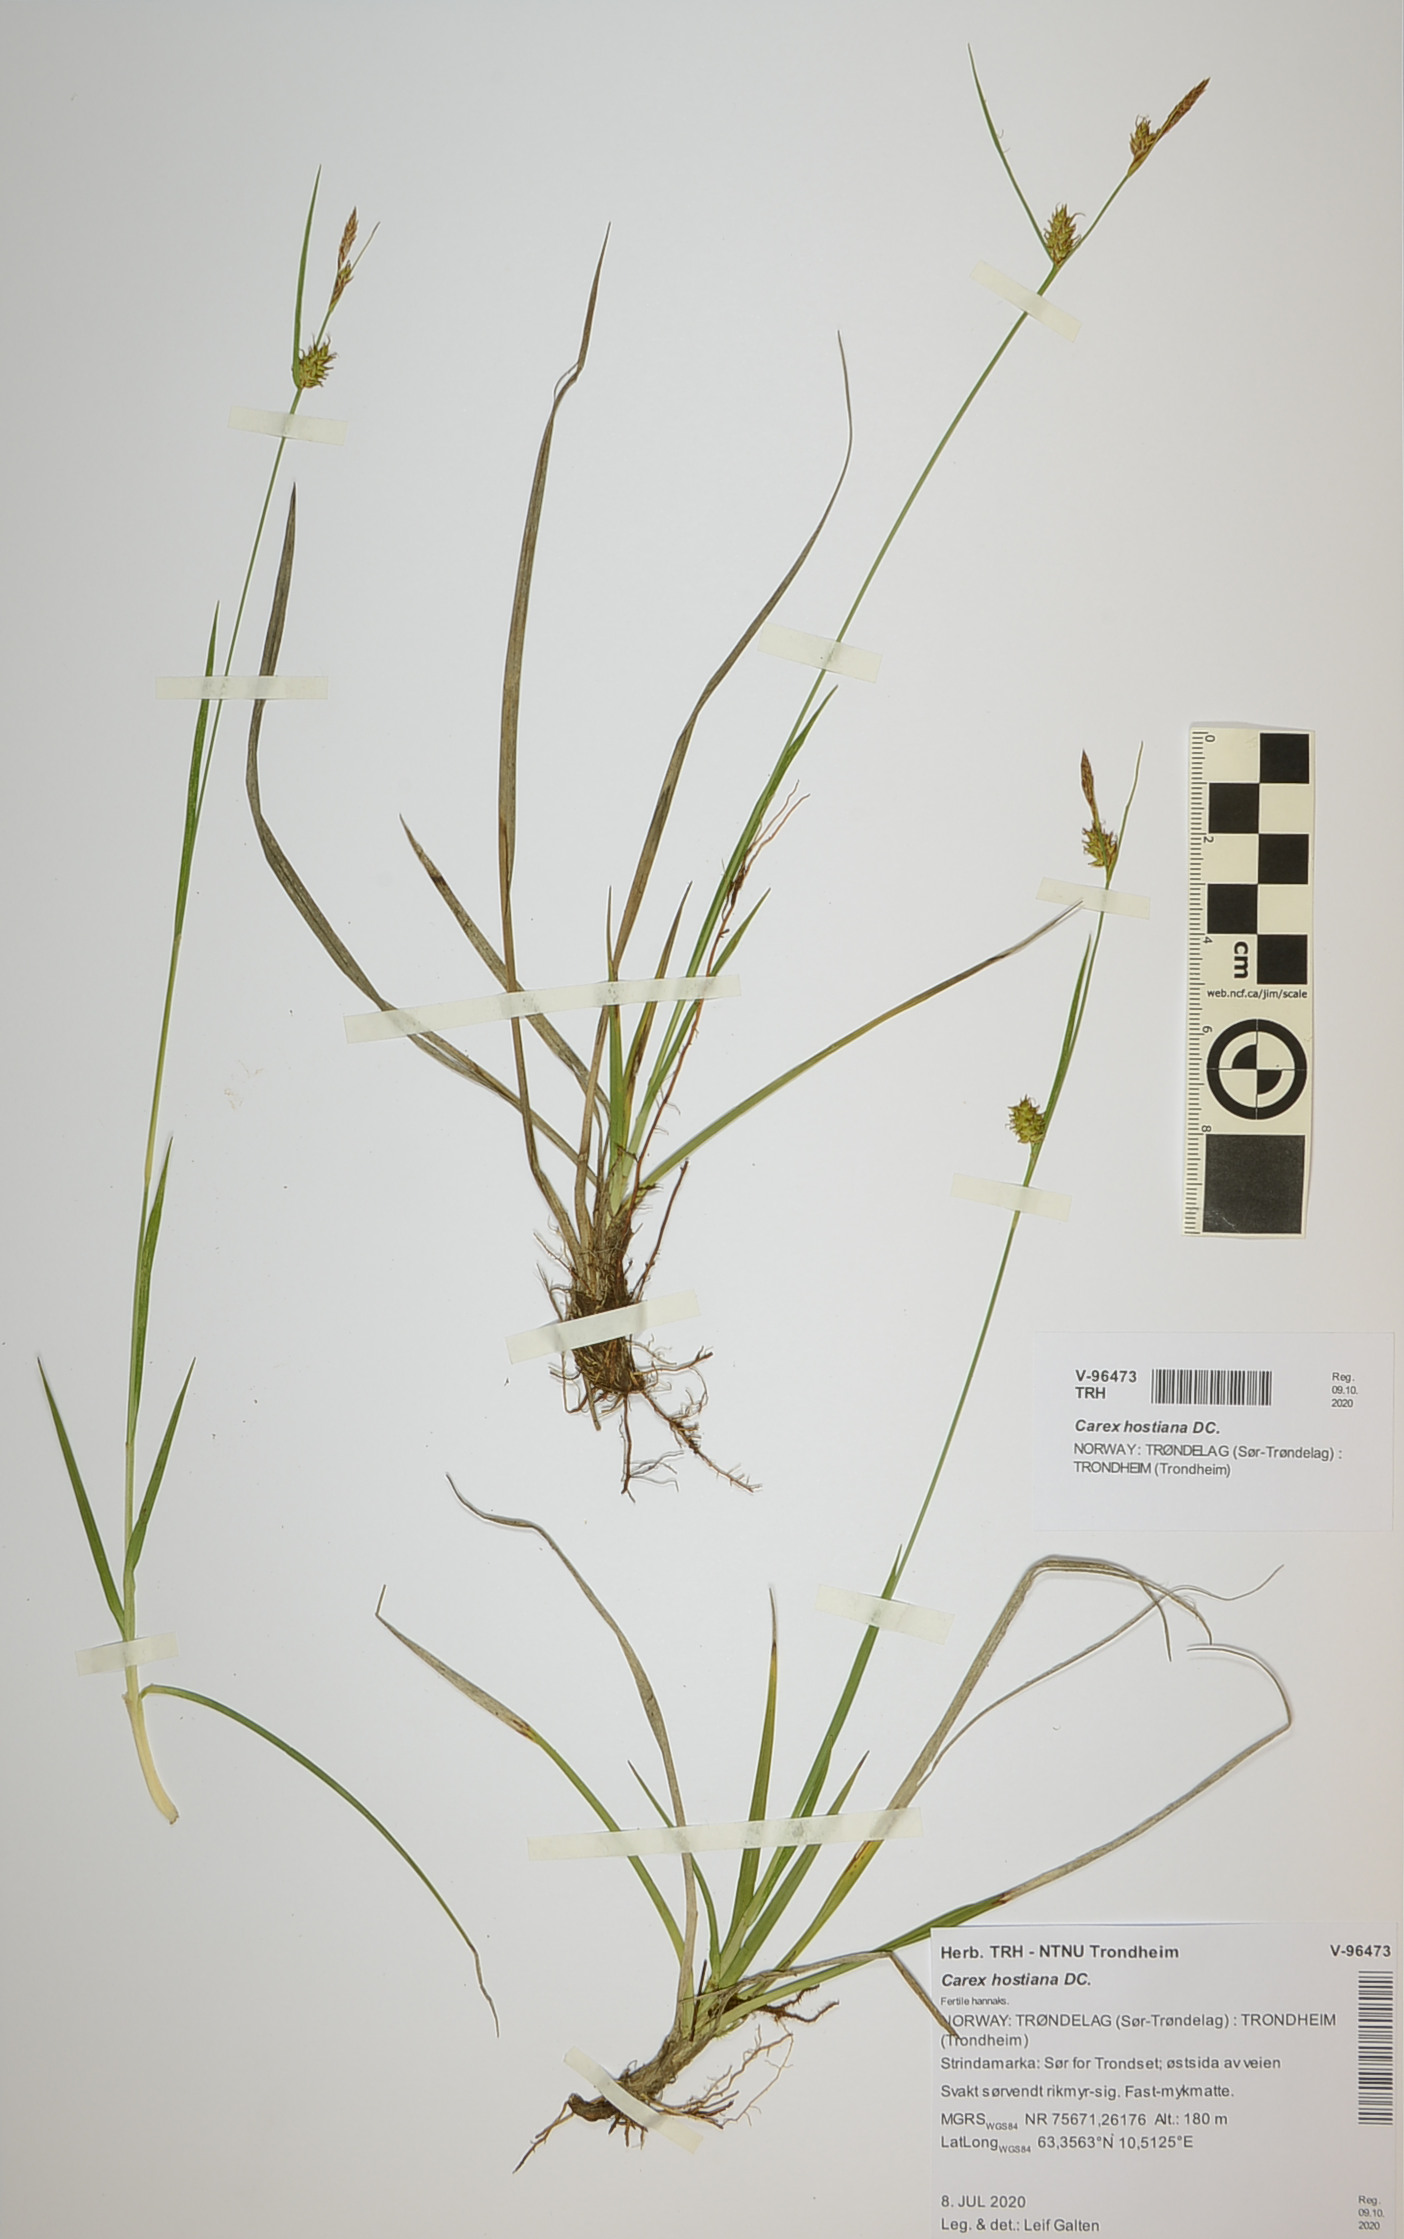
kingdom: Plantae
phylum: Tracheophyta
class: Liliopsida
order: Poales
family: Cyperaceae
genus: Carex
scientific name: Carex hostiana
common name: Tawny sedge
